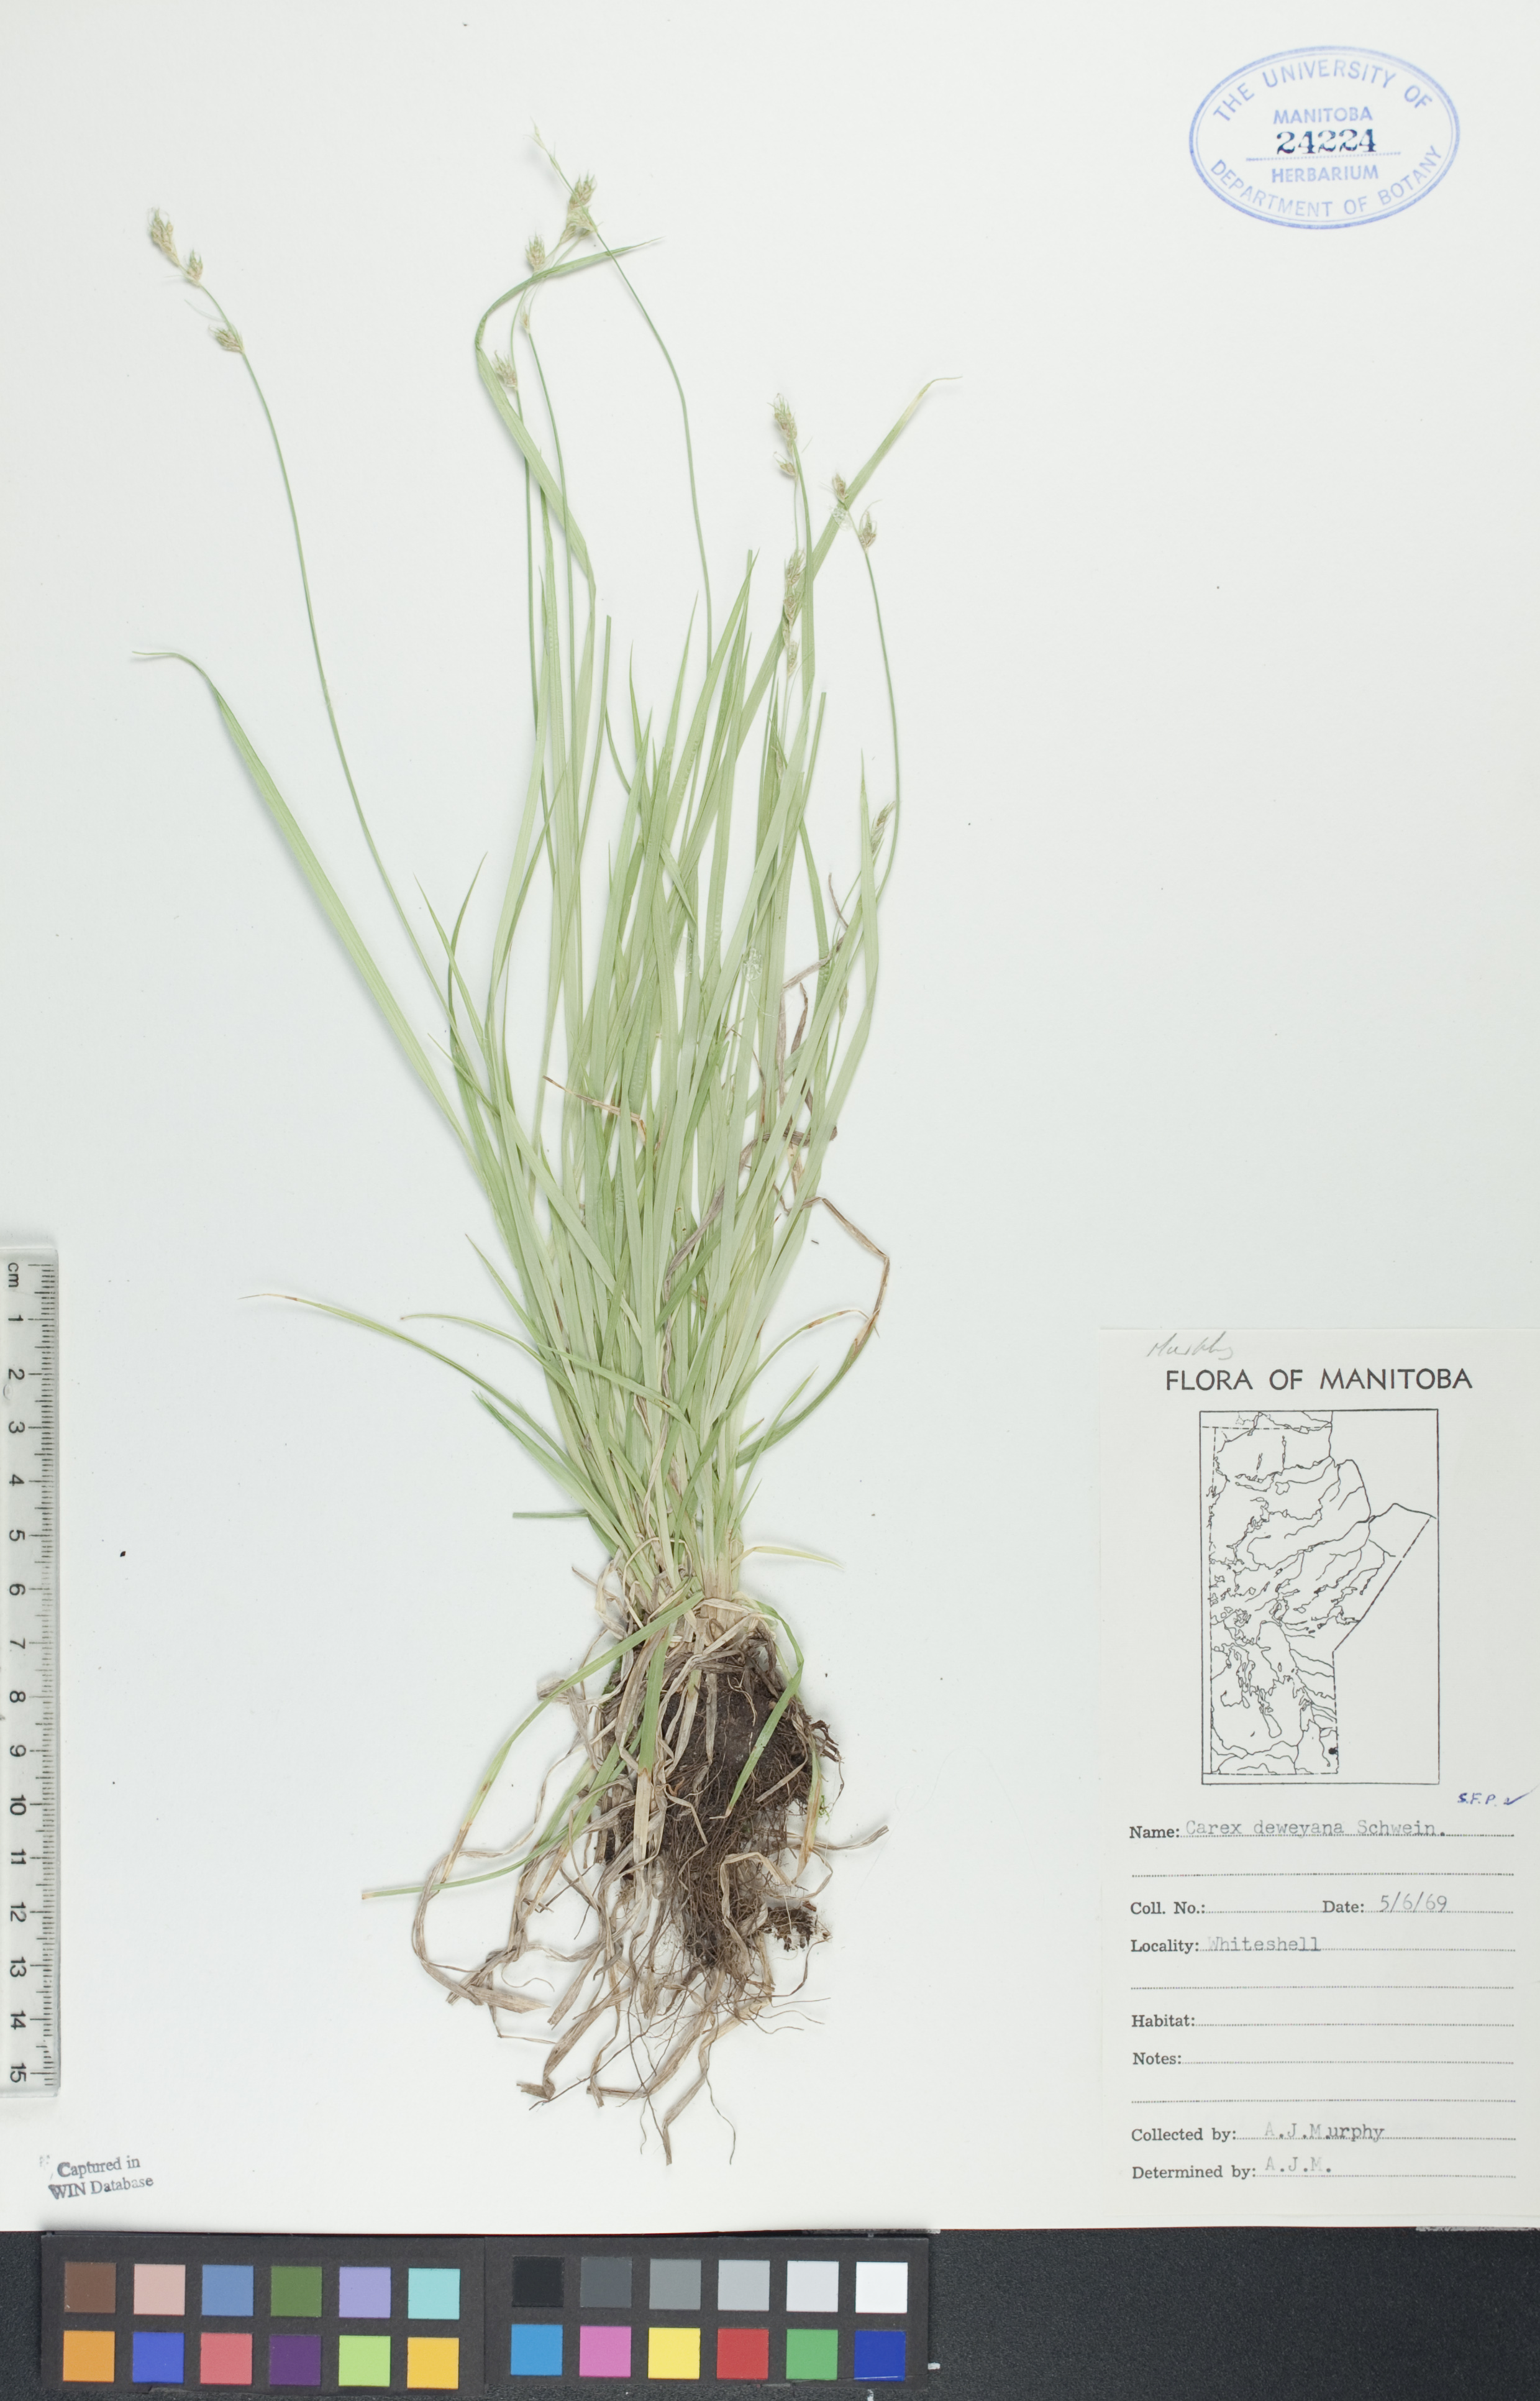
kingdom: Plantae
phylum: Tracheophyta
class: Liliopsida
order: Poales
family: Cyperaceae
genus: Carex
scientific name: Carex deweyana
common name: Dewey's sedge
